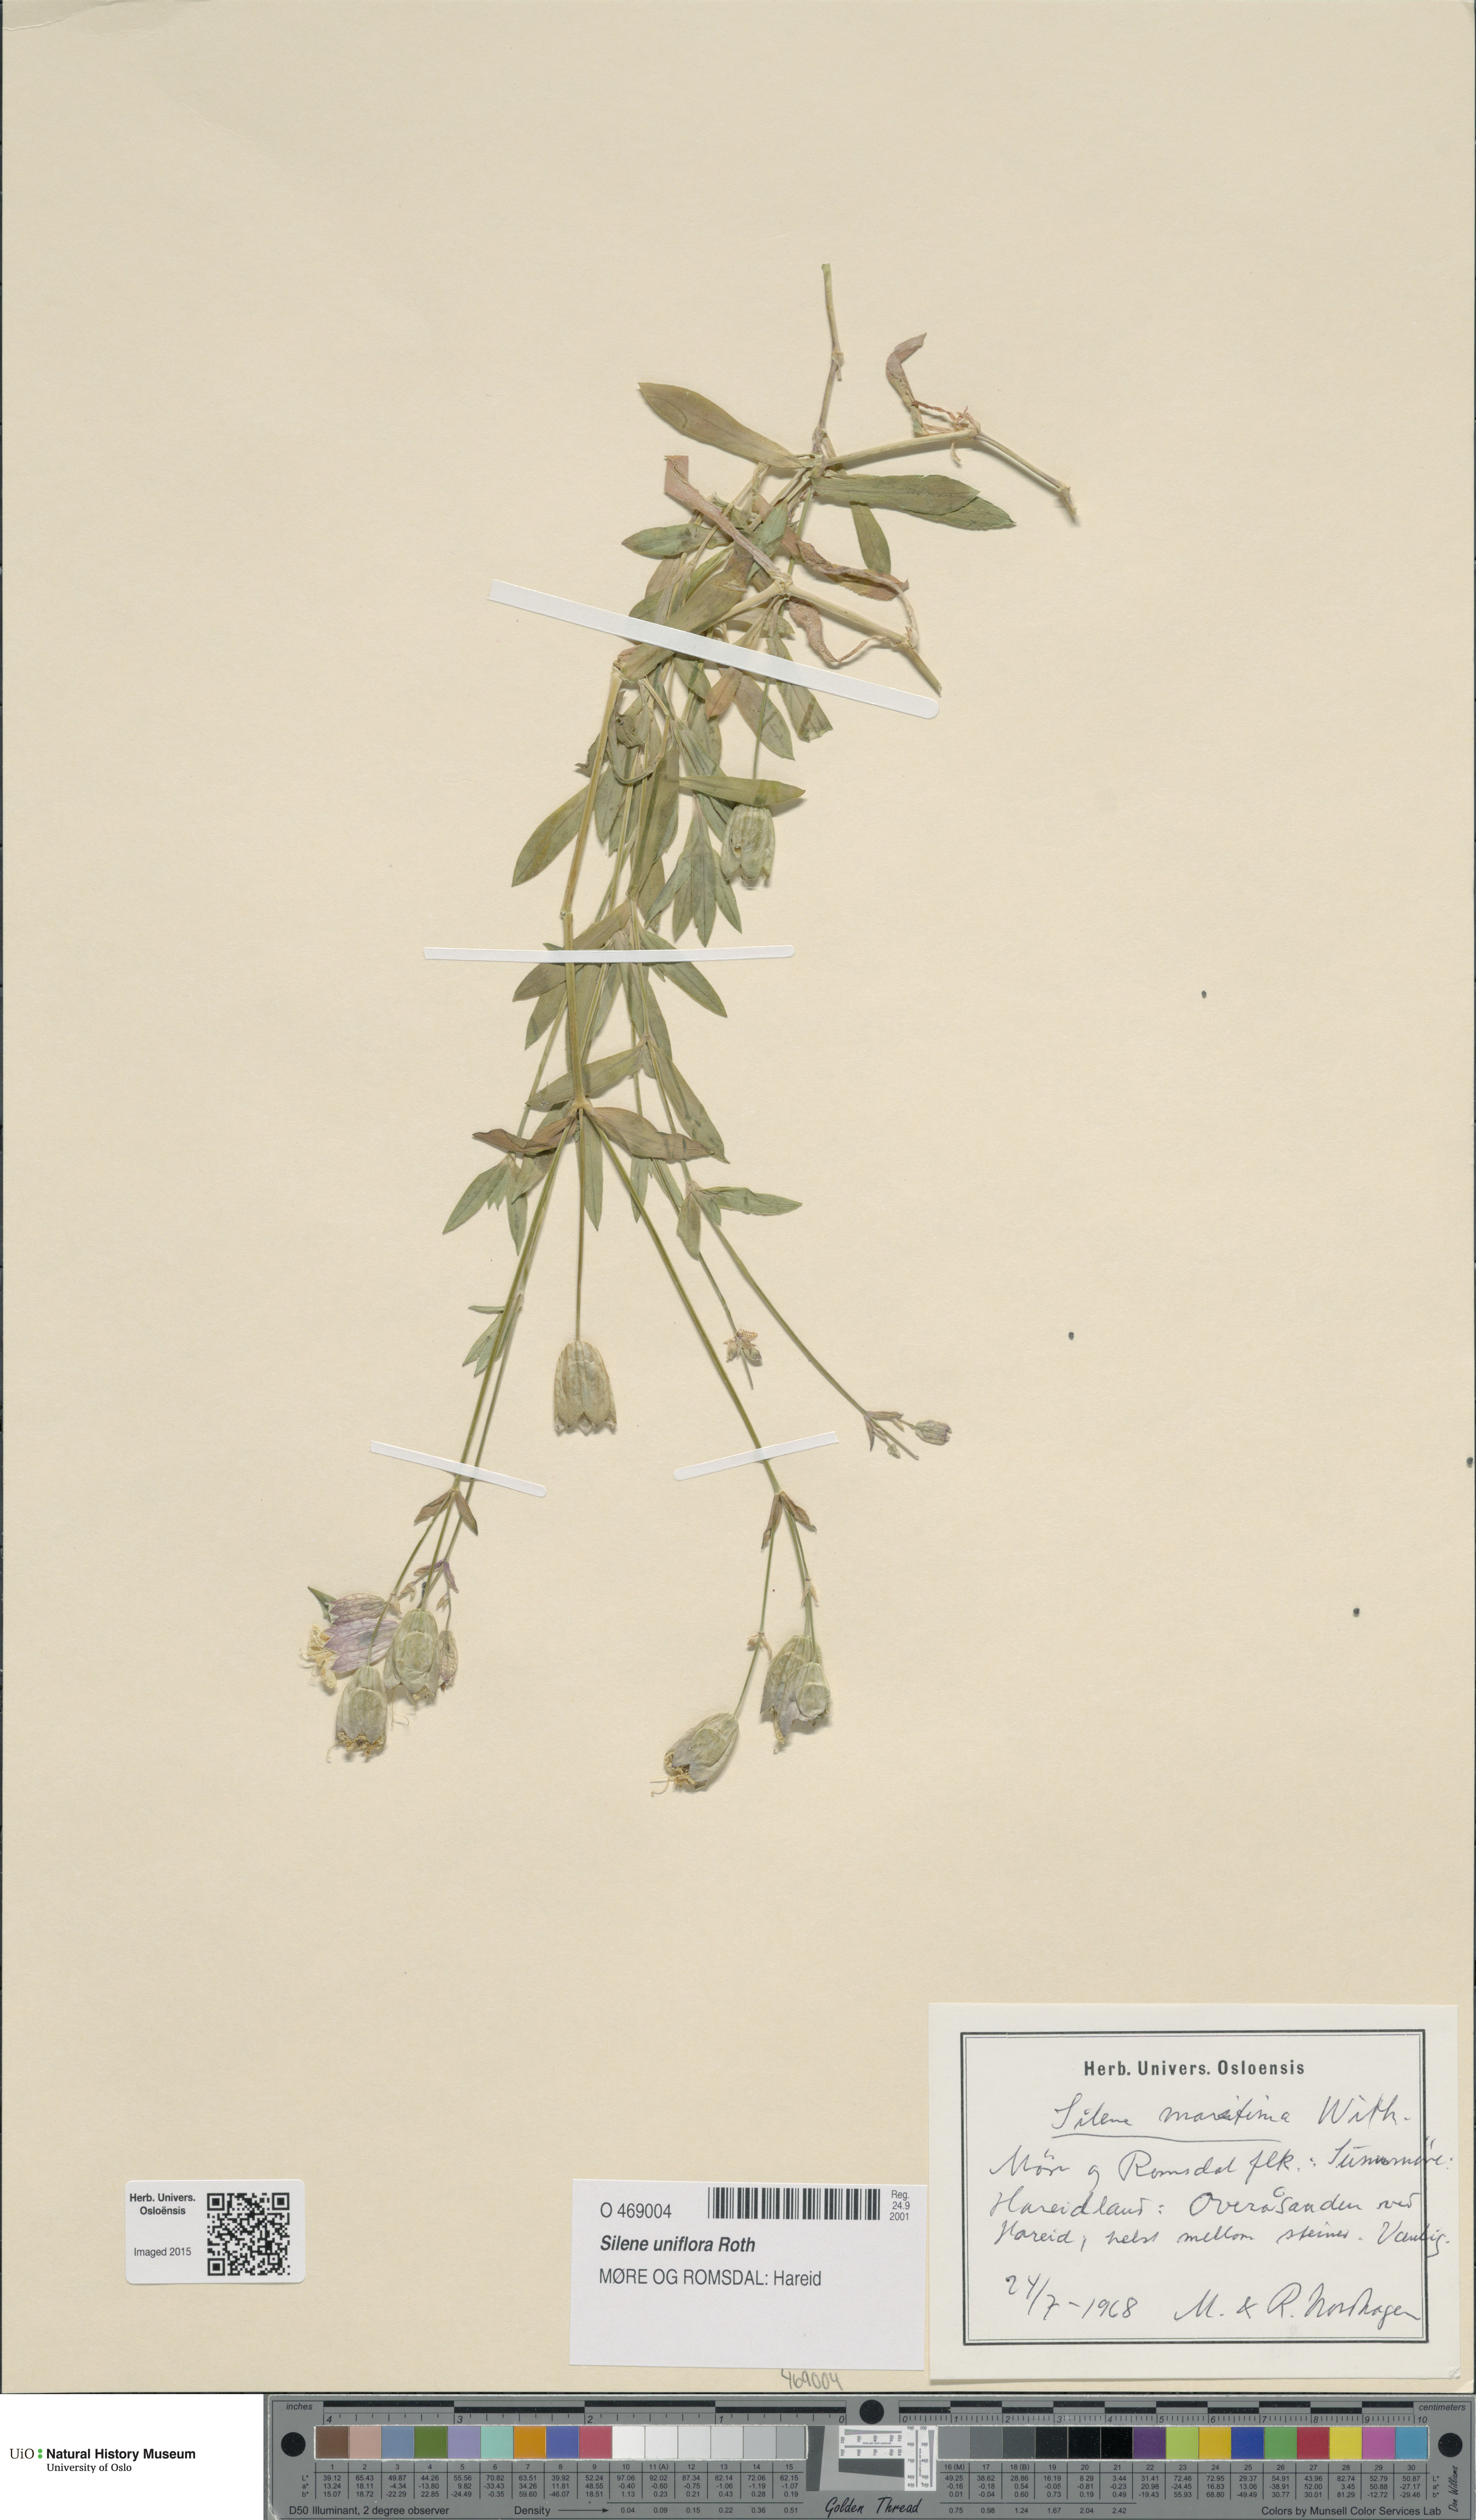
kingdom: Plantae
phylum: Tracheophyta
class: Magnoliopsida
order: Caryophyllales
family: Caryophyllaceae
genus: Silene
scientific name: Silene uniflora
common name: Sea campion
